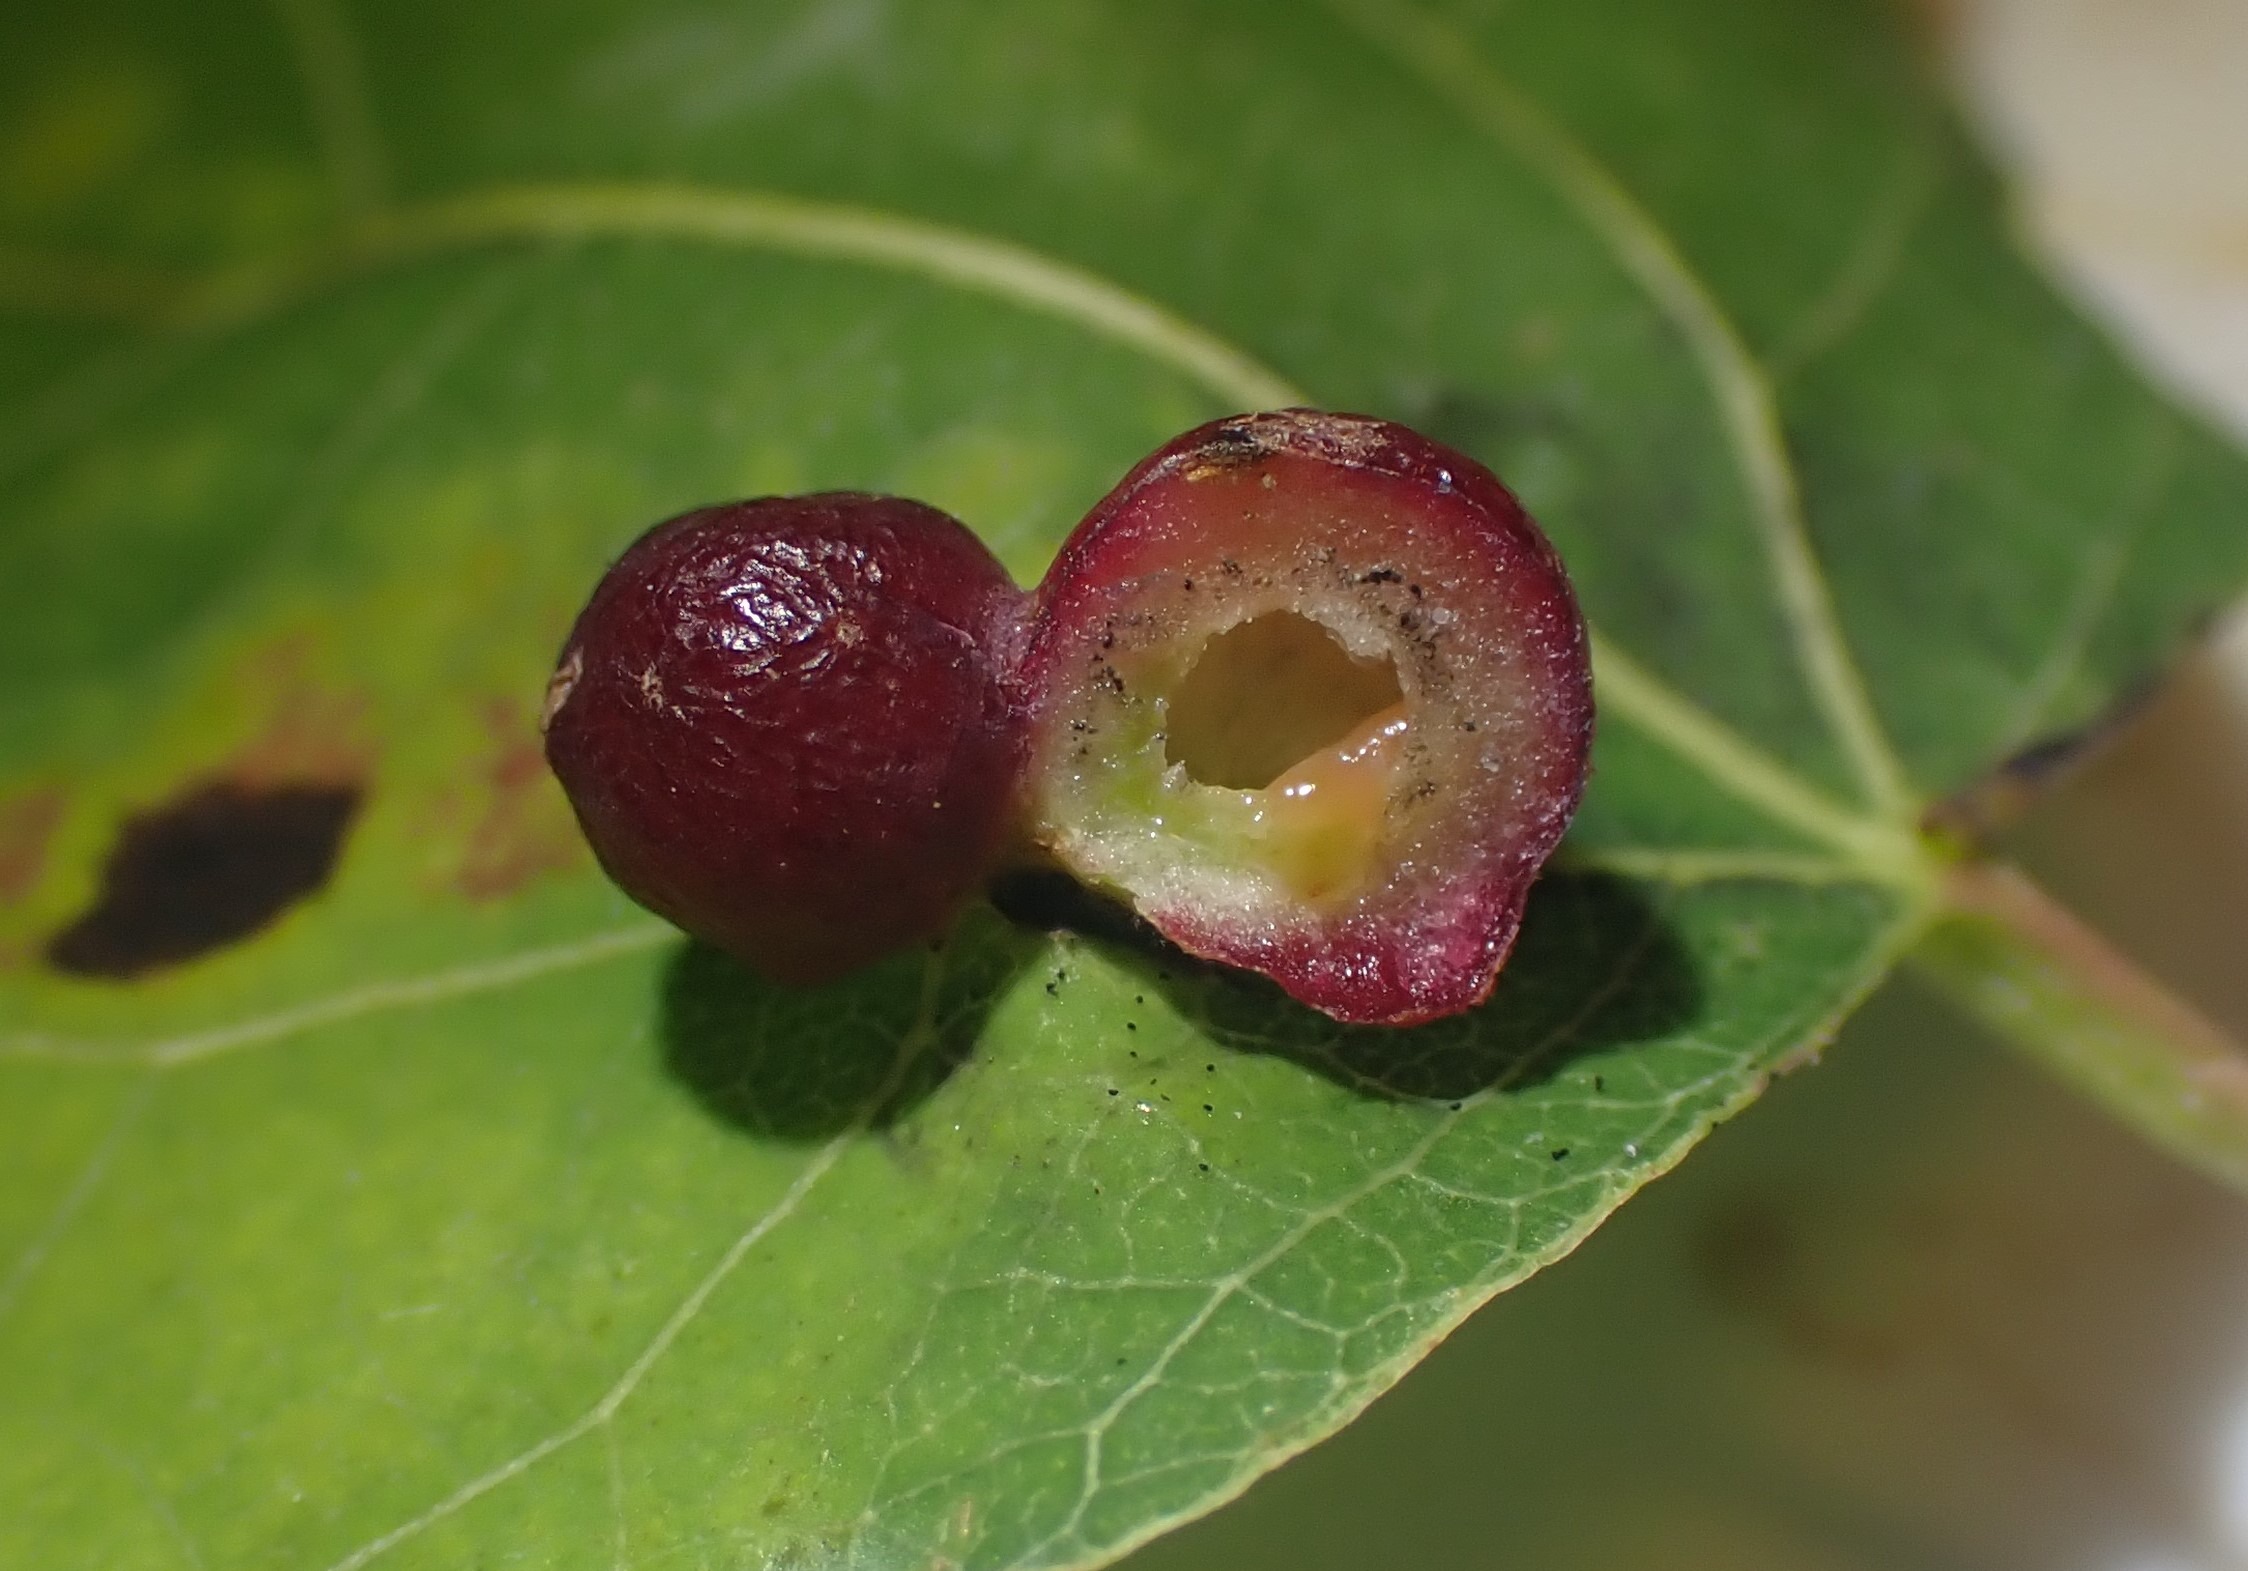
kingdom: Animalia
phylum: Arthropoda
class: Insecta
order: Diptera
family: Cecidomyiidae
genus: Harmandiola
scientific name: Harmandiola tremulae
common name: Aspekuglegalmyg
